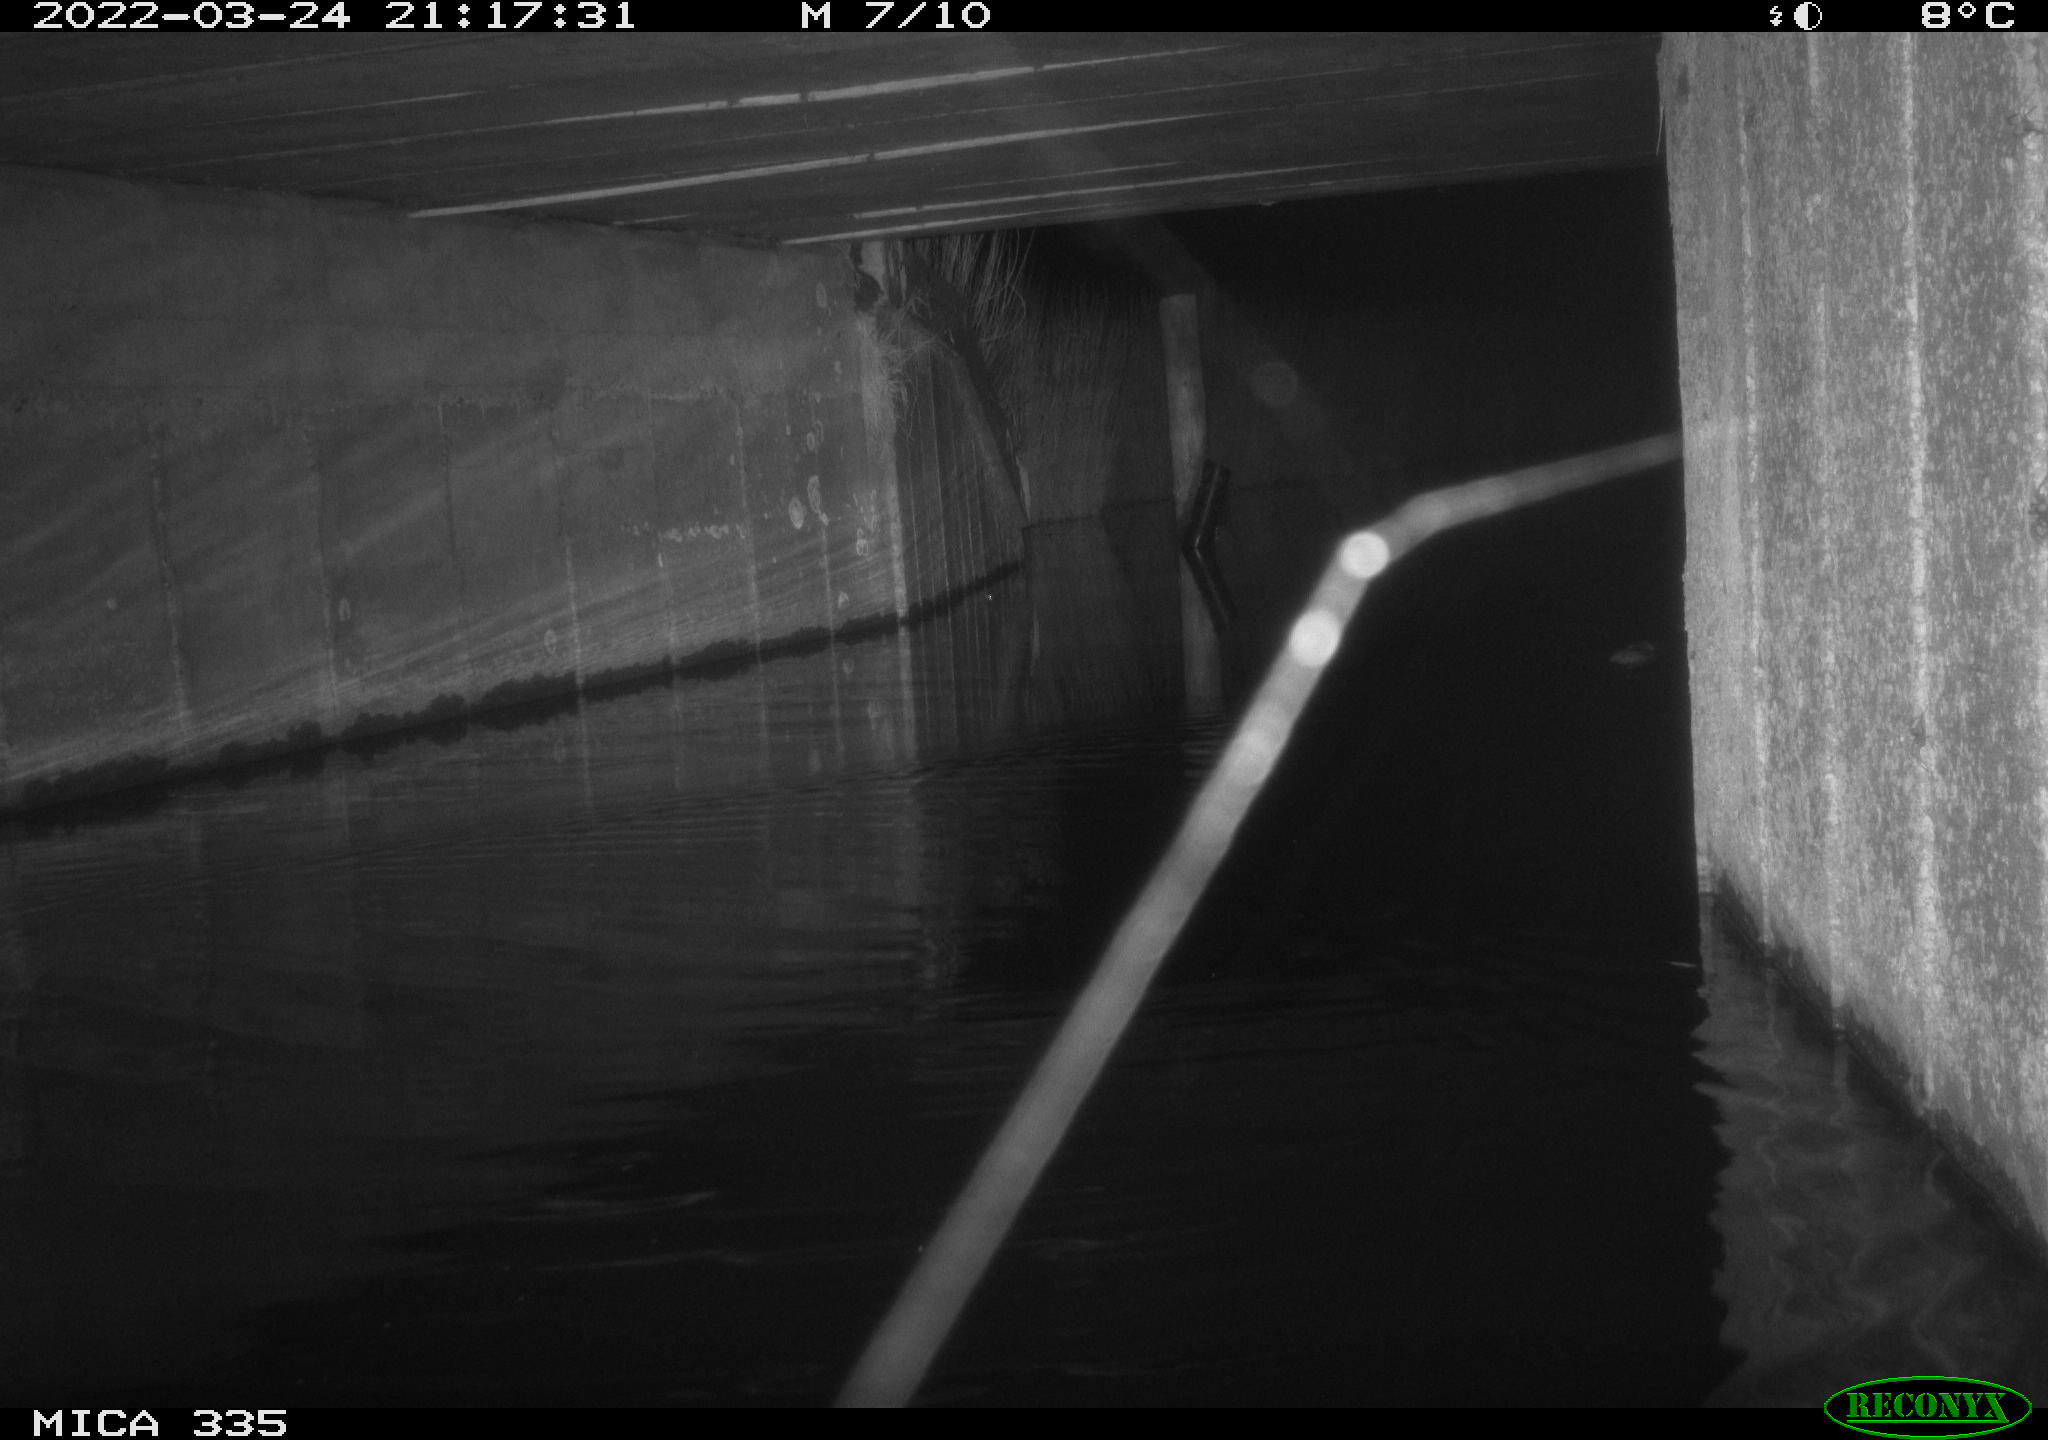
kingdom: Animalia
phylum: Chordata
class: Mammalia
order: Rodentia
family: Muridae
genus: Rattus
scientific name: Rattus norvegicus
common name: Brown rat
